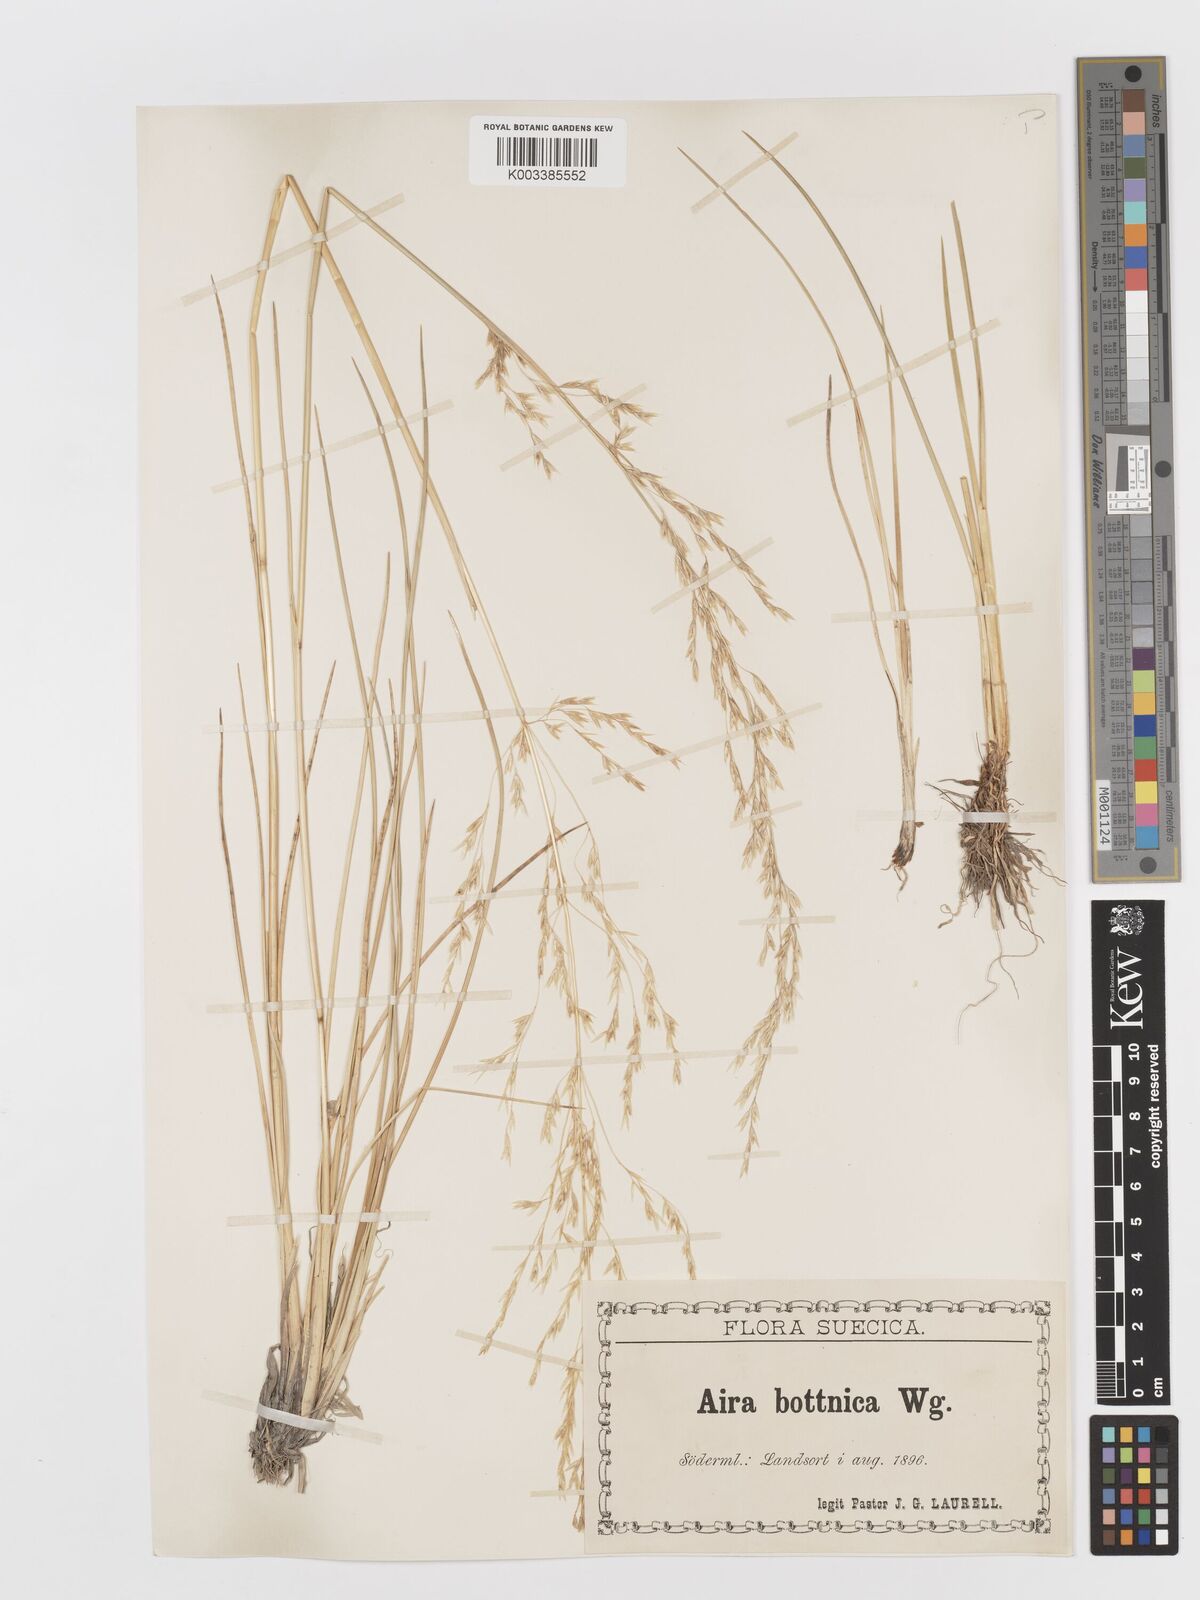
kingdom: Plantae
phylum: Tracheophyta
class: Liliopsida
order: Poales
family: Poaceae
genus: Deschampsia
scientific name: Deschampsia cespitosa
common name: Tufted hair-grass
